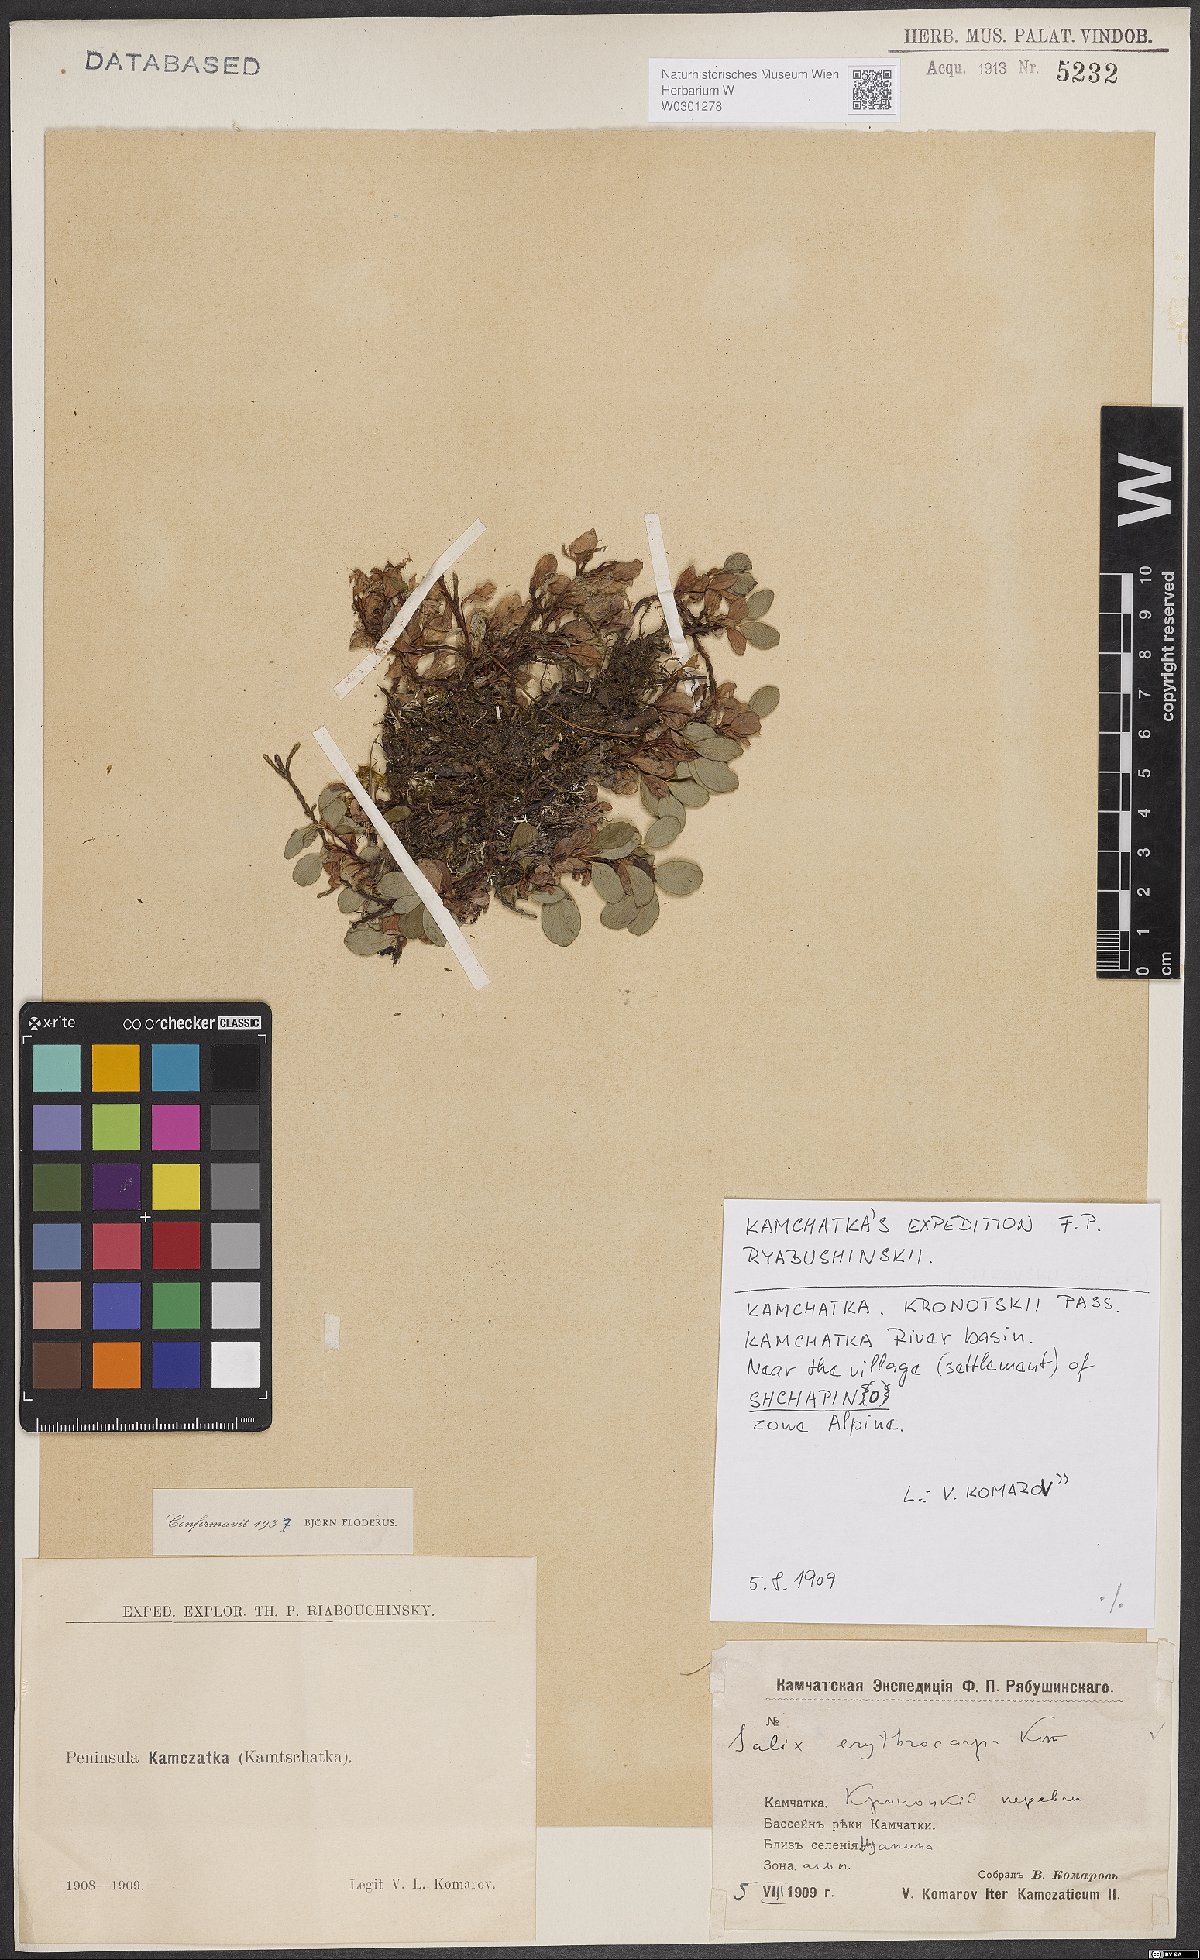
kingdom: Plantae
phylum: Tracheophyta
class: Magnoliopsida
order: Malpighiales
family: Salicaceae
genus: Salix
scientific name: Salix erythrocarpa
